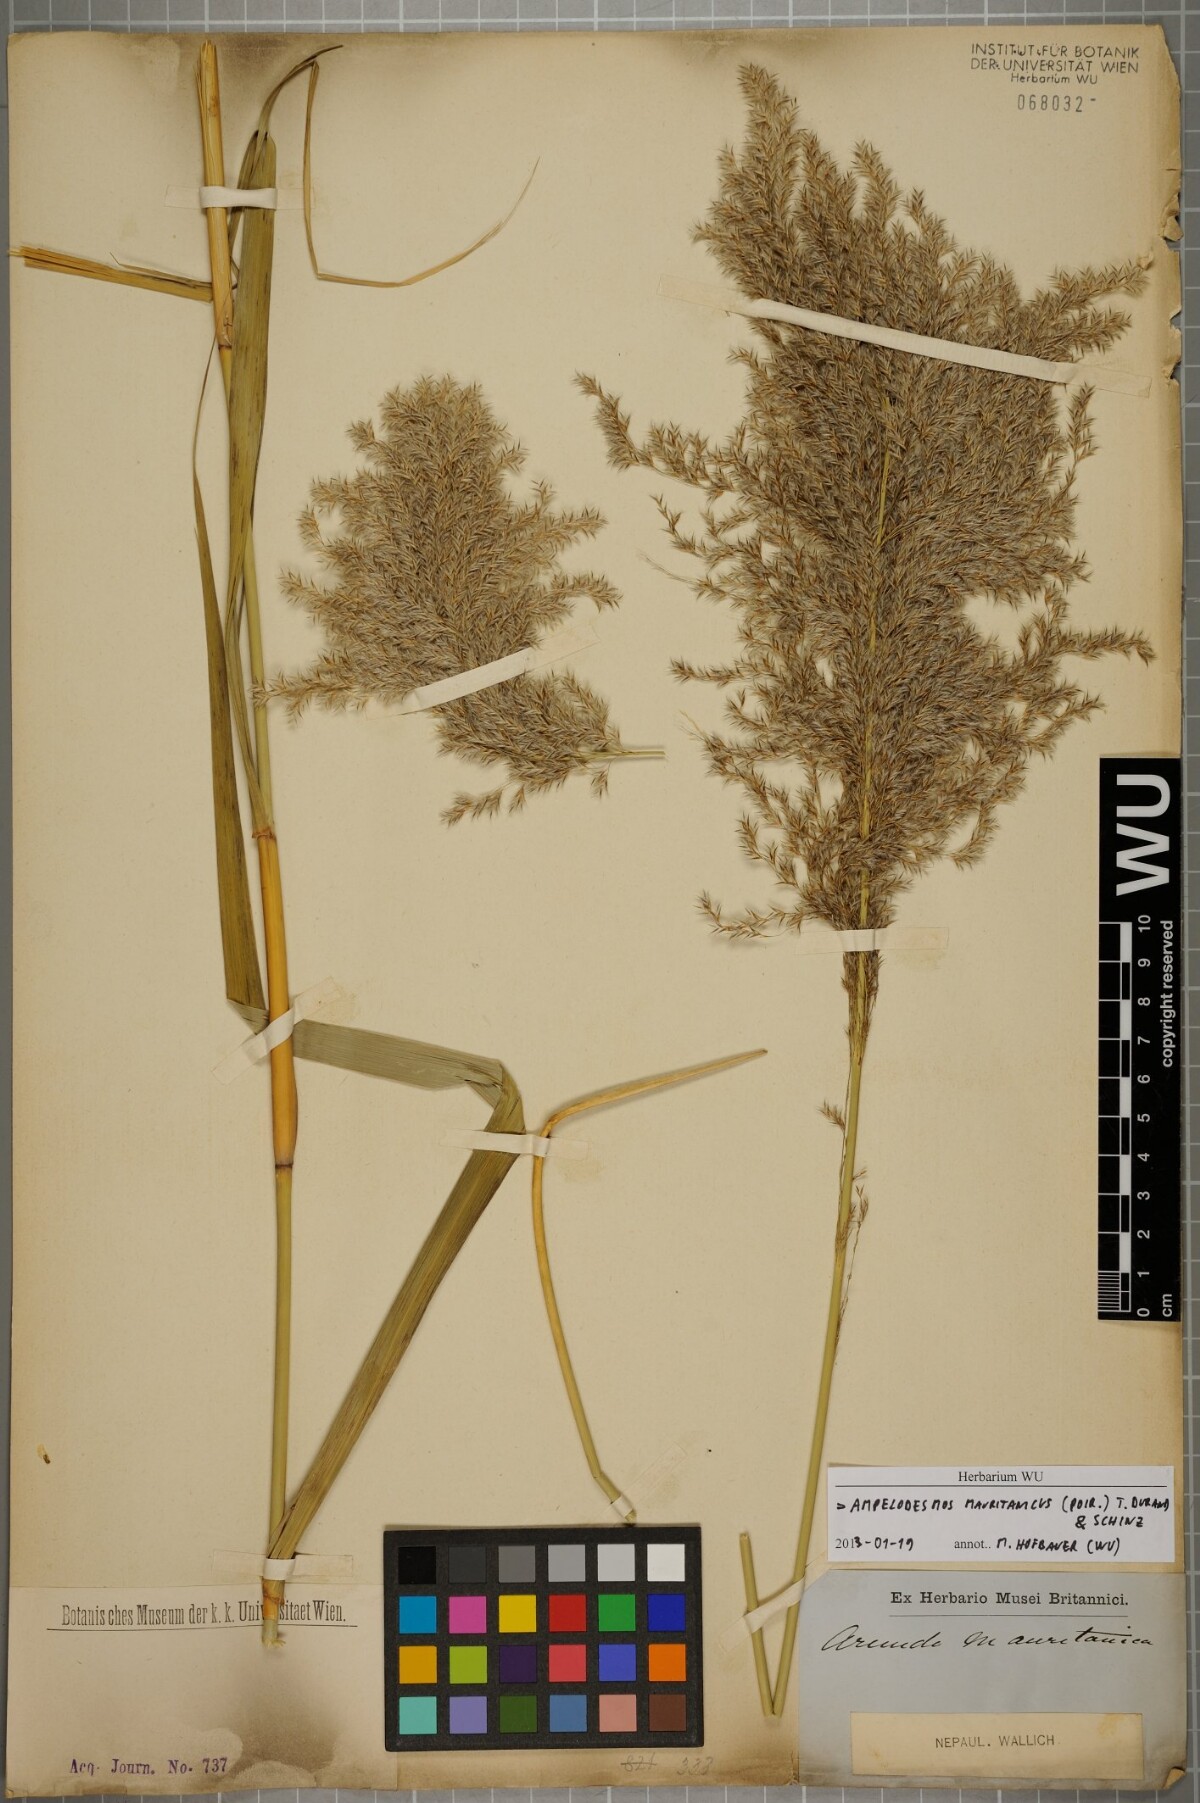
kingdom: Plantae
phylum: Tracheophyta
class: Liliopsida
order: Poales
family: Poaceae
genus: Ampelodesmos
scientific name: Ampelodesmos mauritanicus
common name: Mauritanian grass
